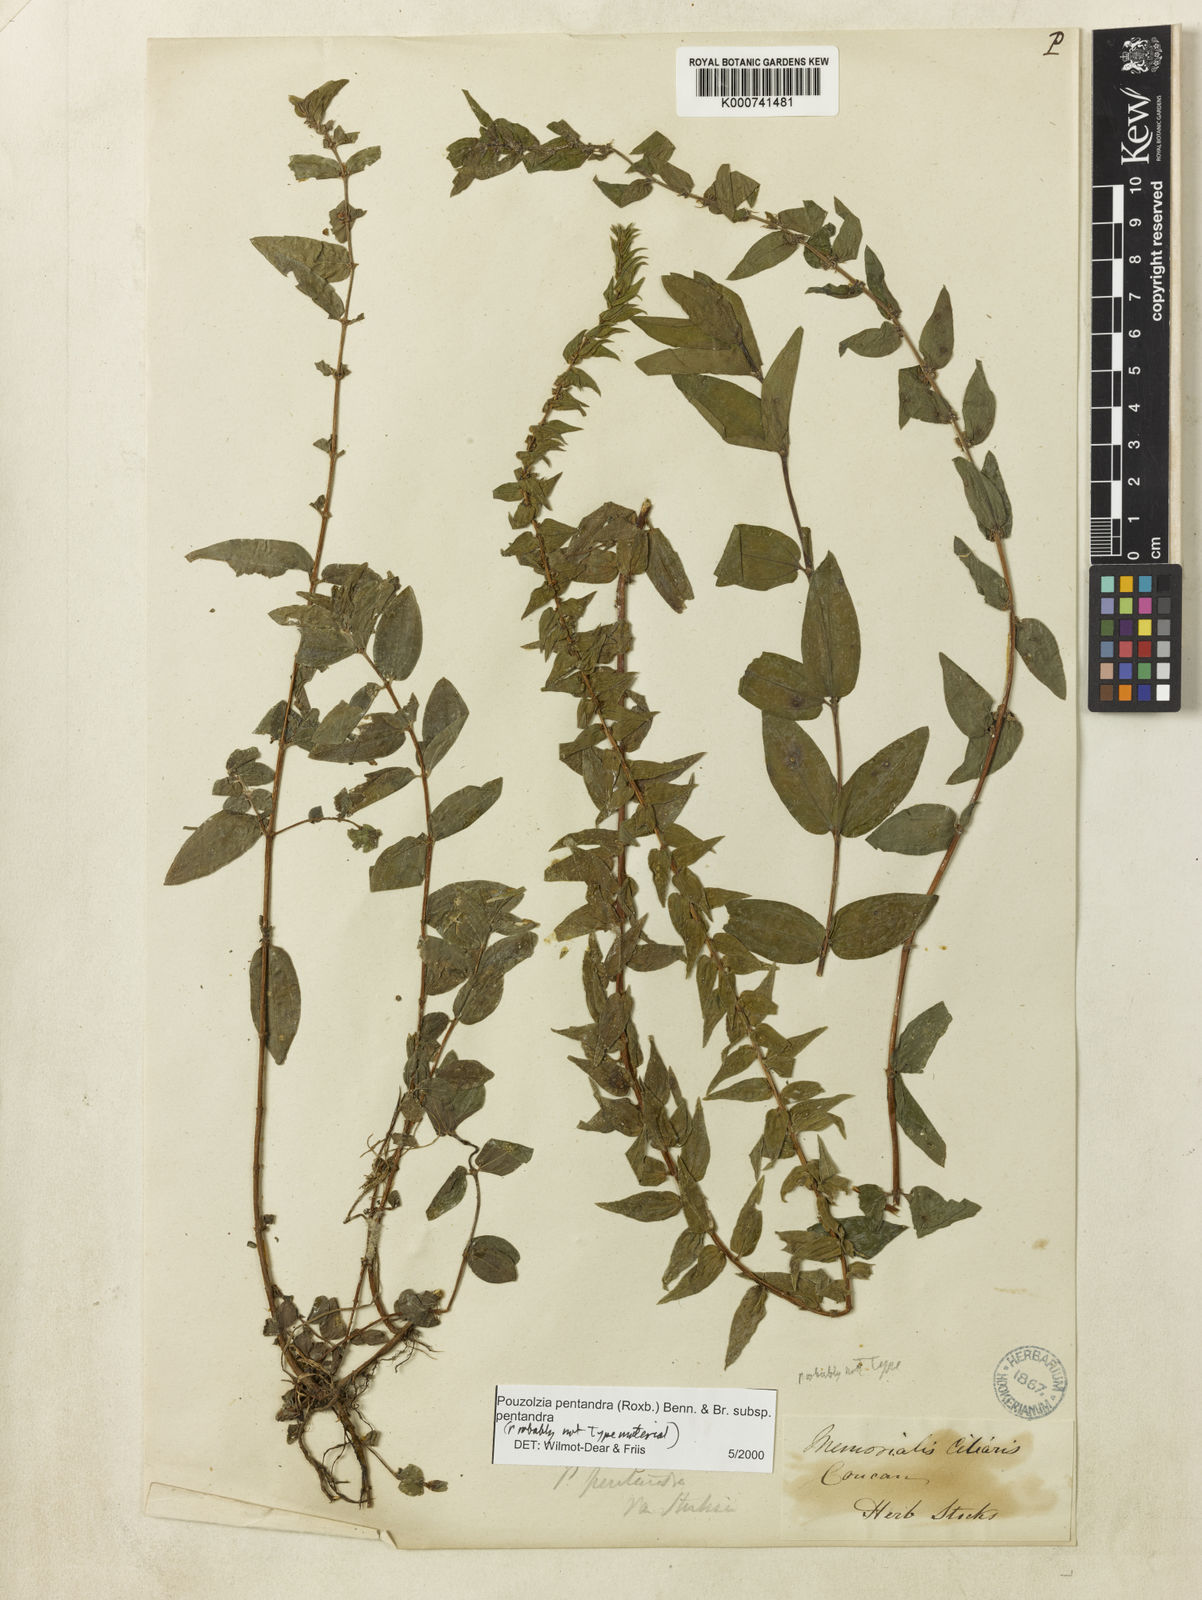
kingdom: Plantae
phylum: Tracheophyta
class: Magnoliopsida
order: Rosales
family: Urticaceae
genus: Gonostegia
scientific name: Gonostegia pentandra
